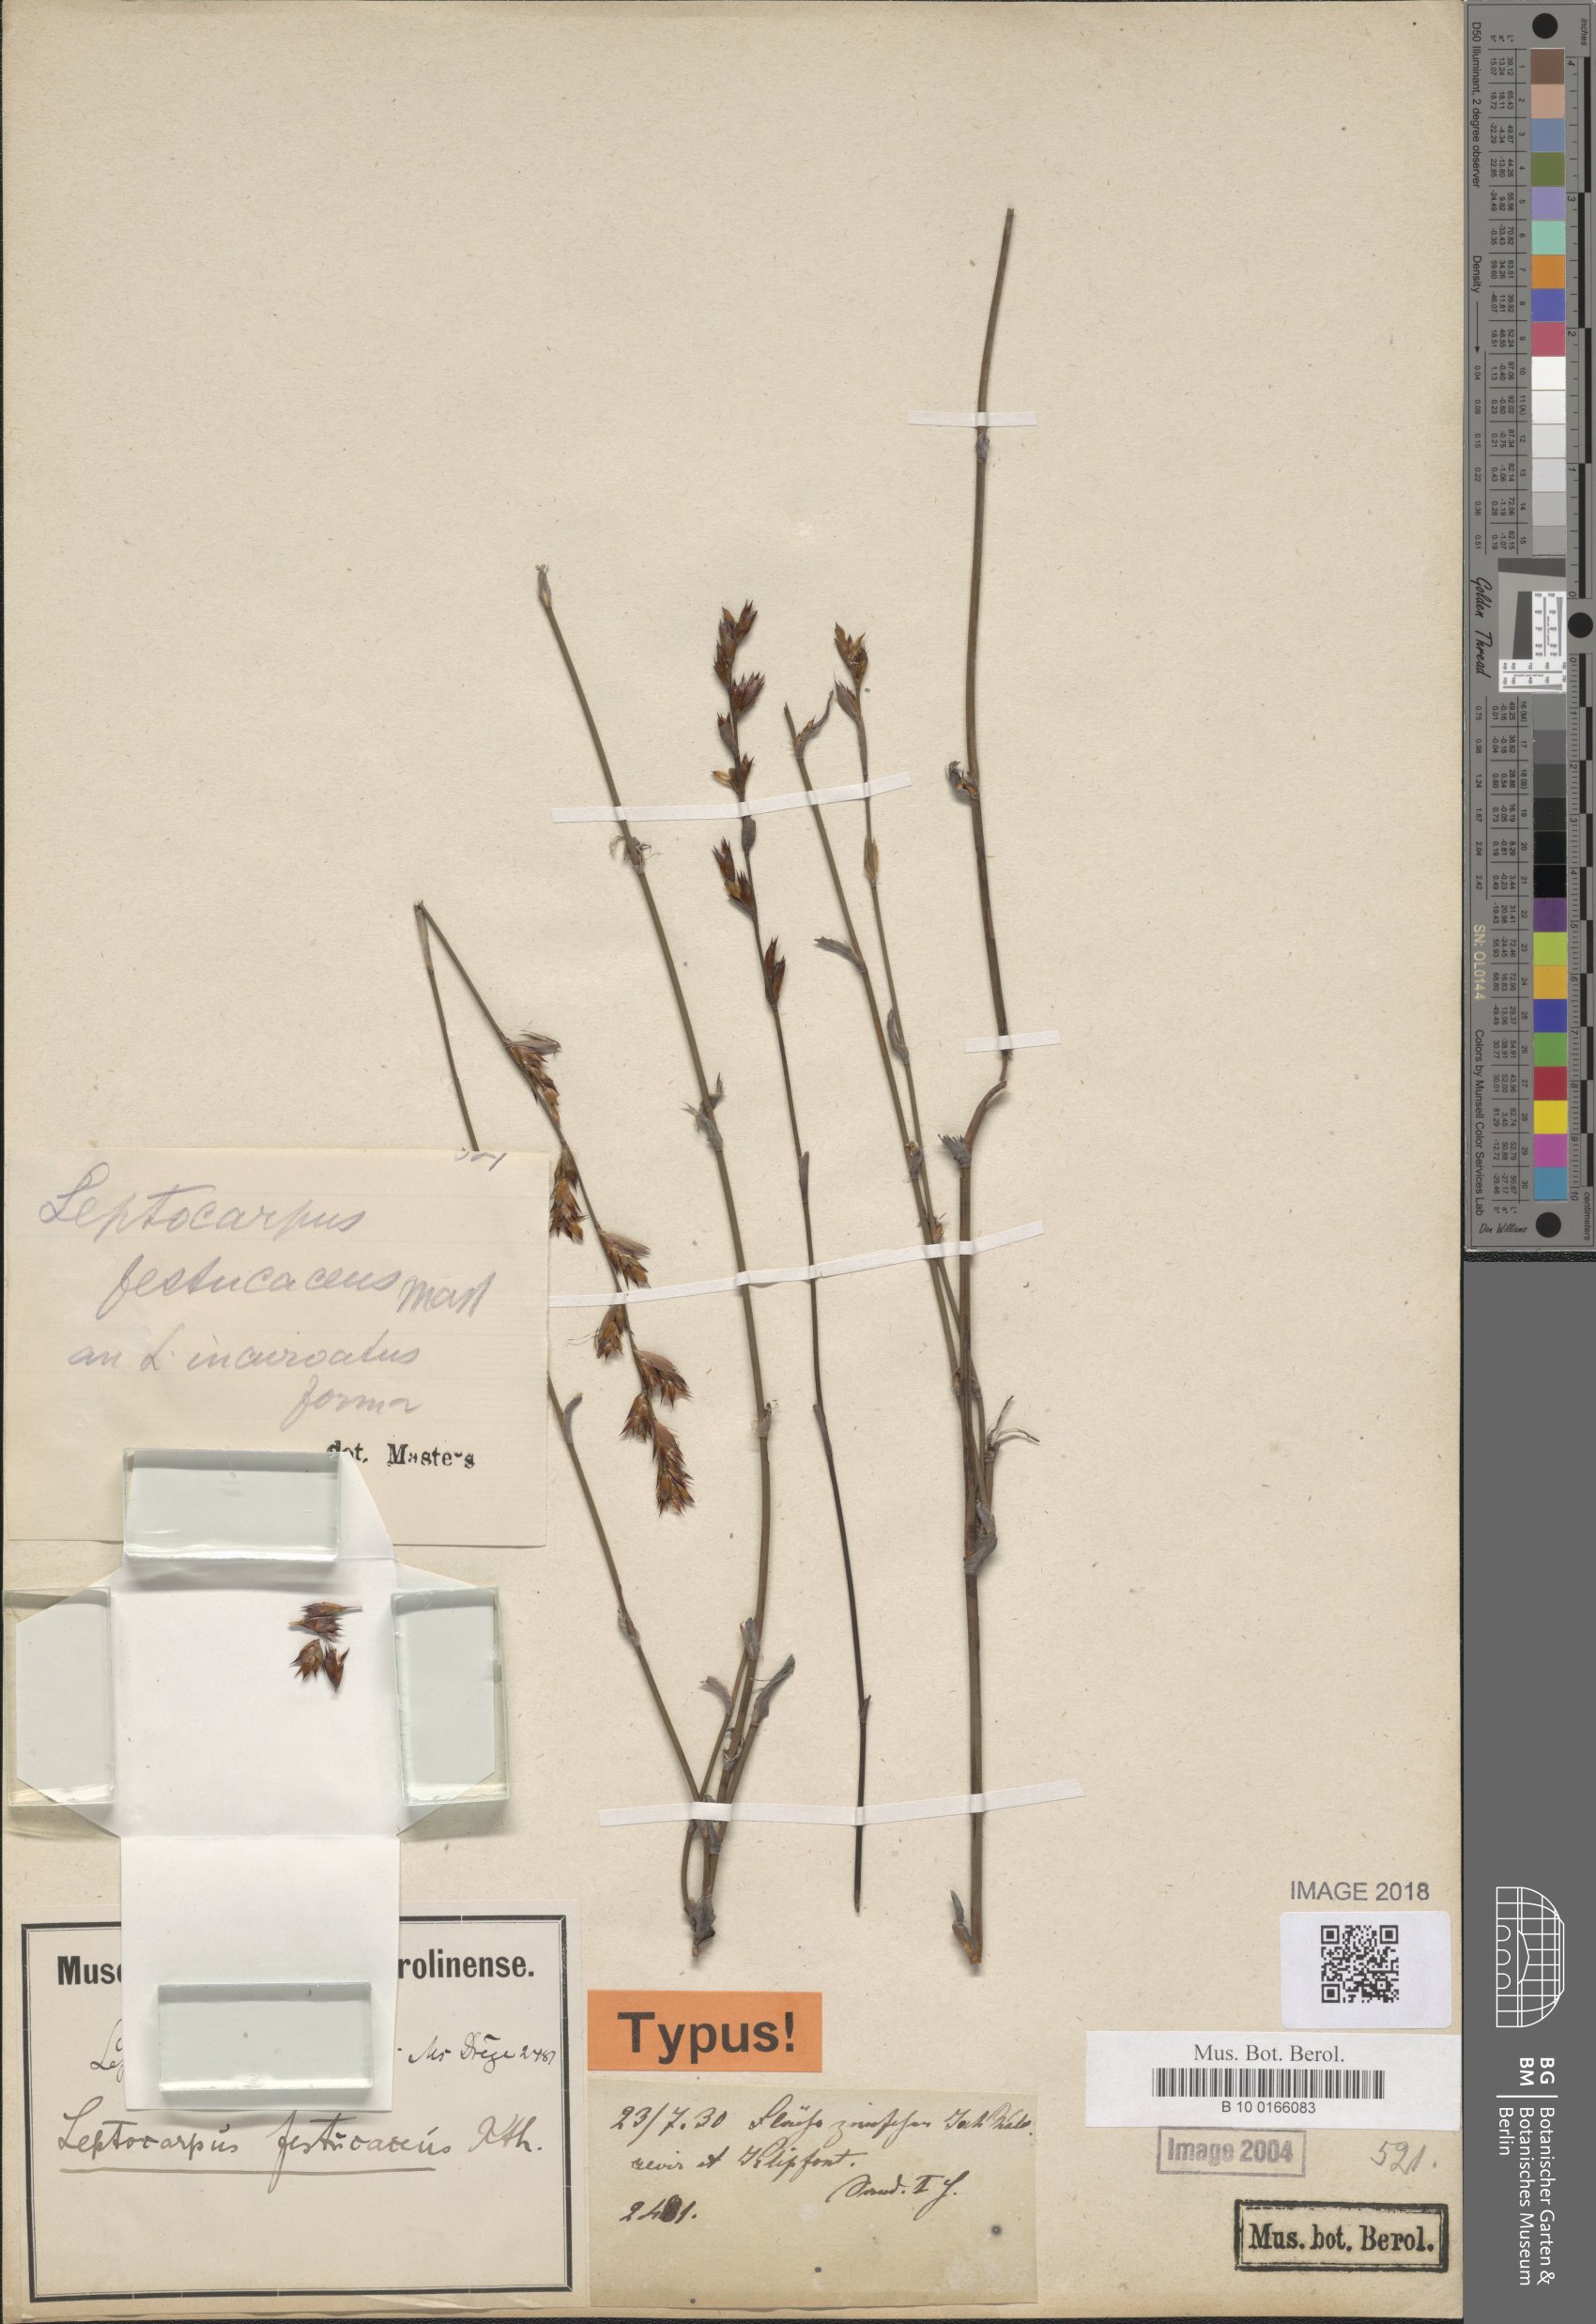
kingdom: Plantae
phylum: Tracheophyta
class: Liliopsida
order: Poales
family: Restionaceae
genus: Restio
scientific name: Restio vimineus
